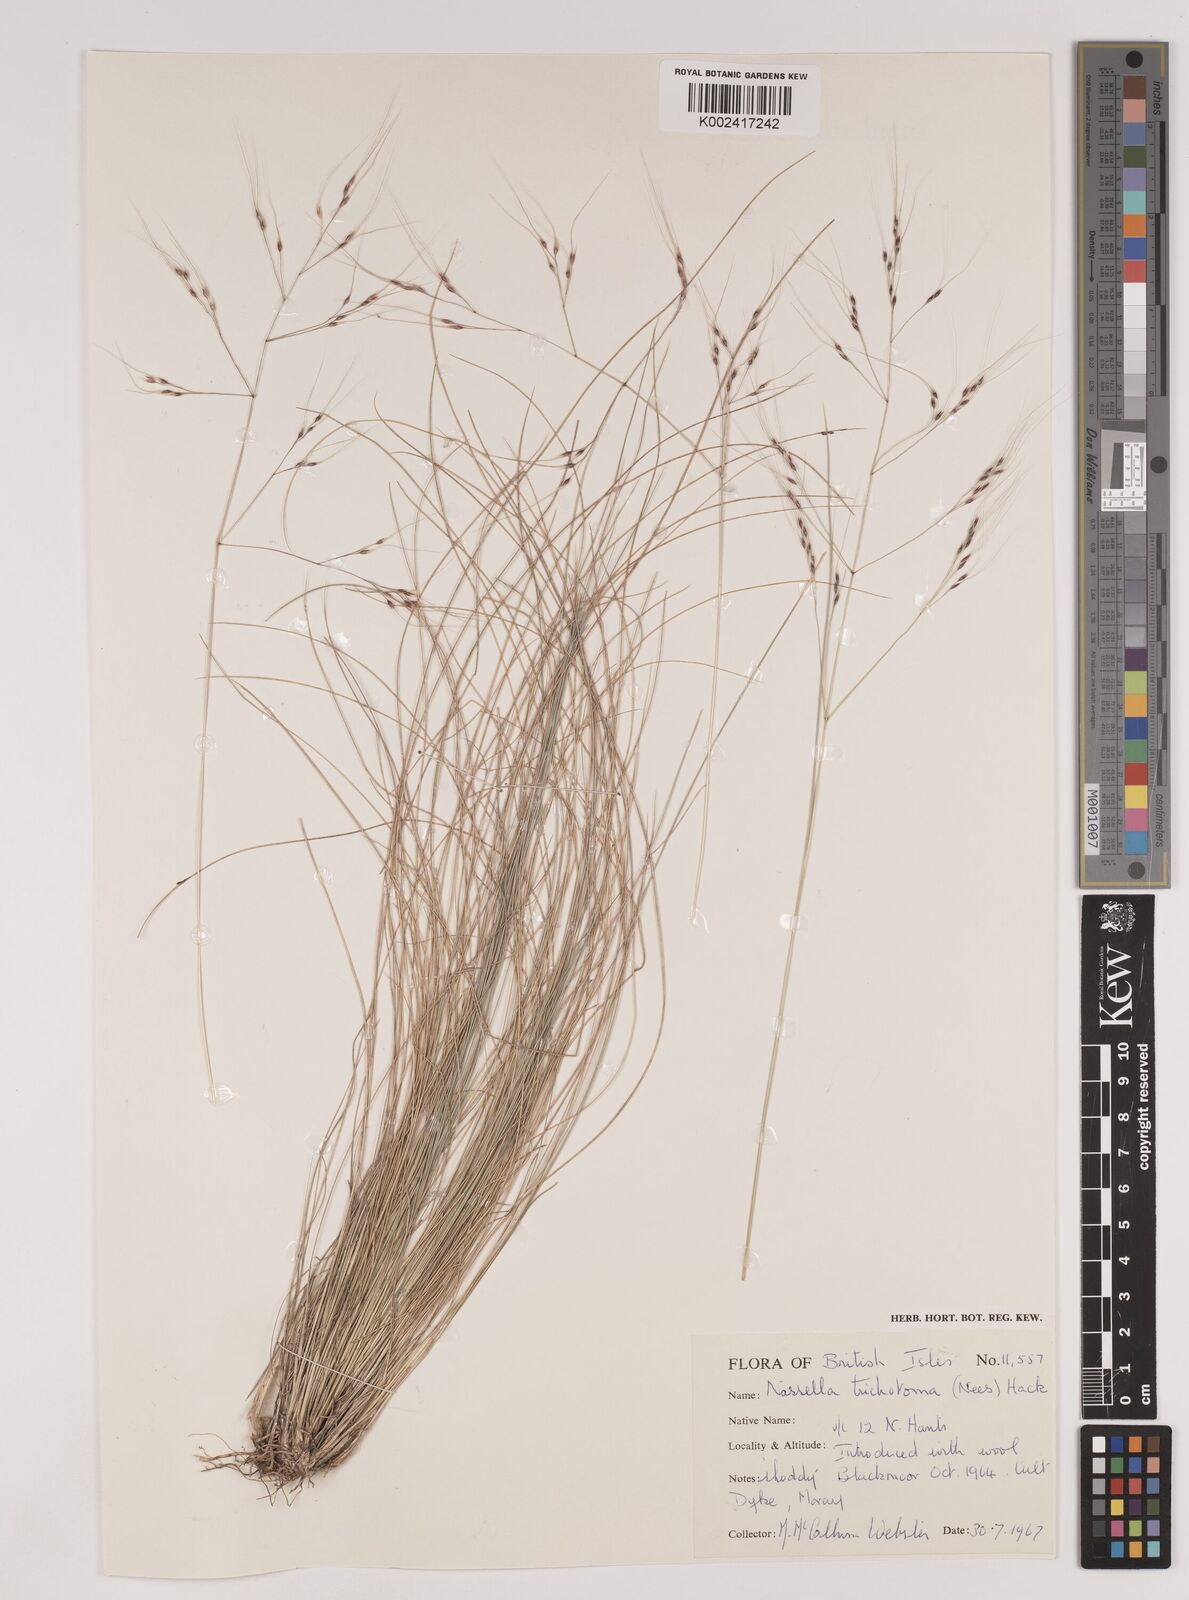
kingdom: Plantae
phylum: Tracheophyta
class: Liliopsida
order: Poales
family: Poaceae
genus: Nassella
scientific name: Nassella trichotoma
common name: Serrated tussock grass
